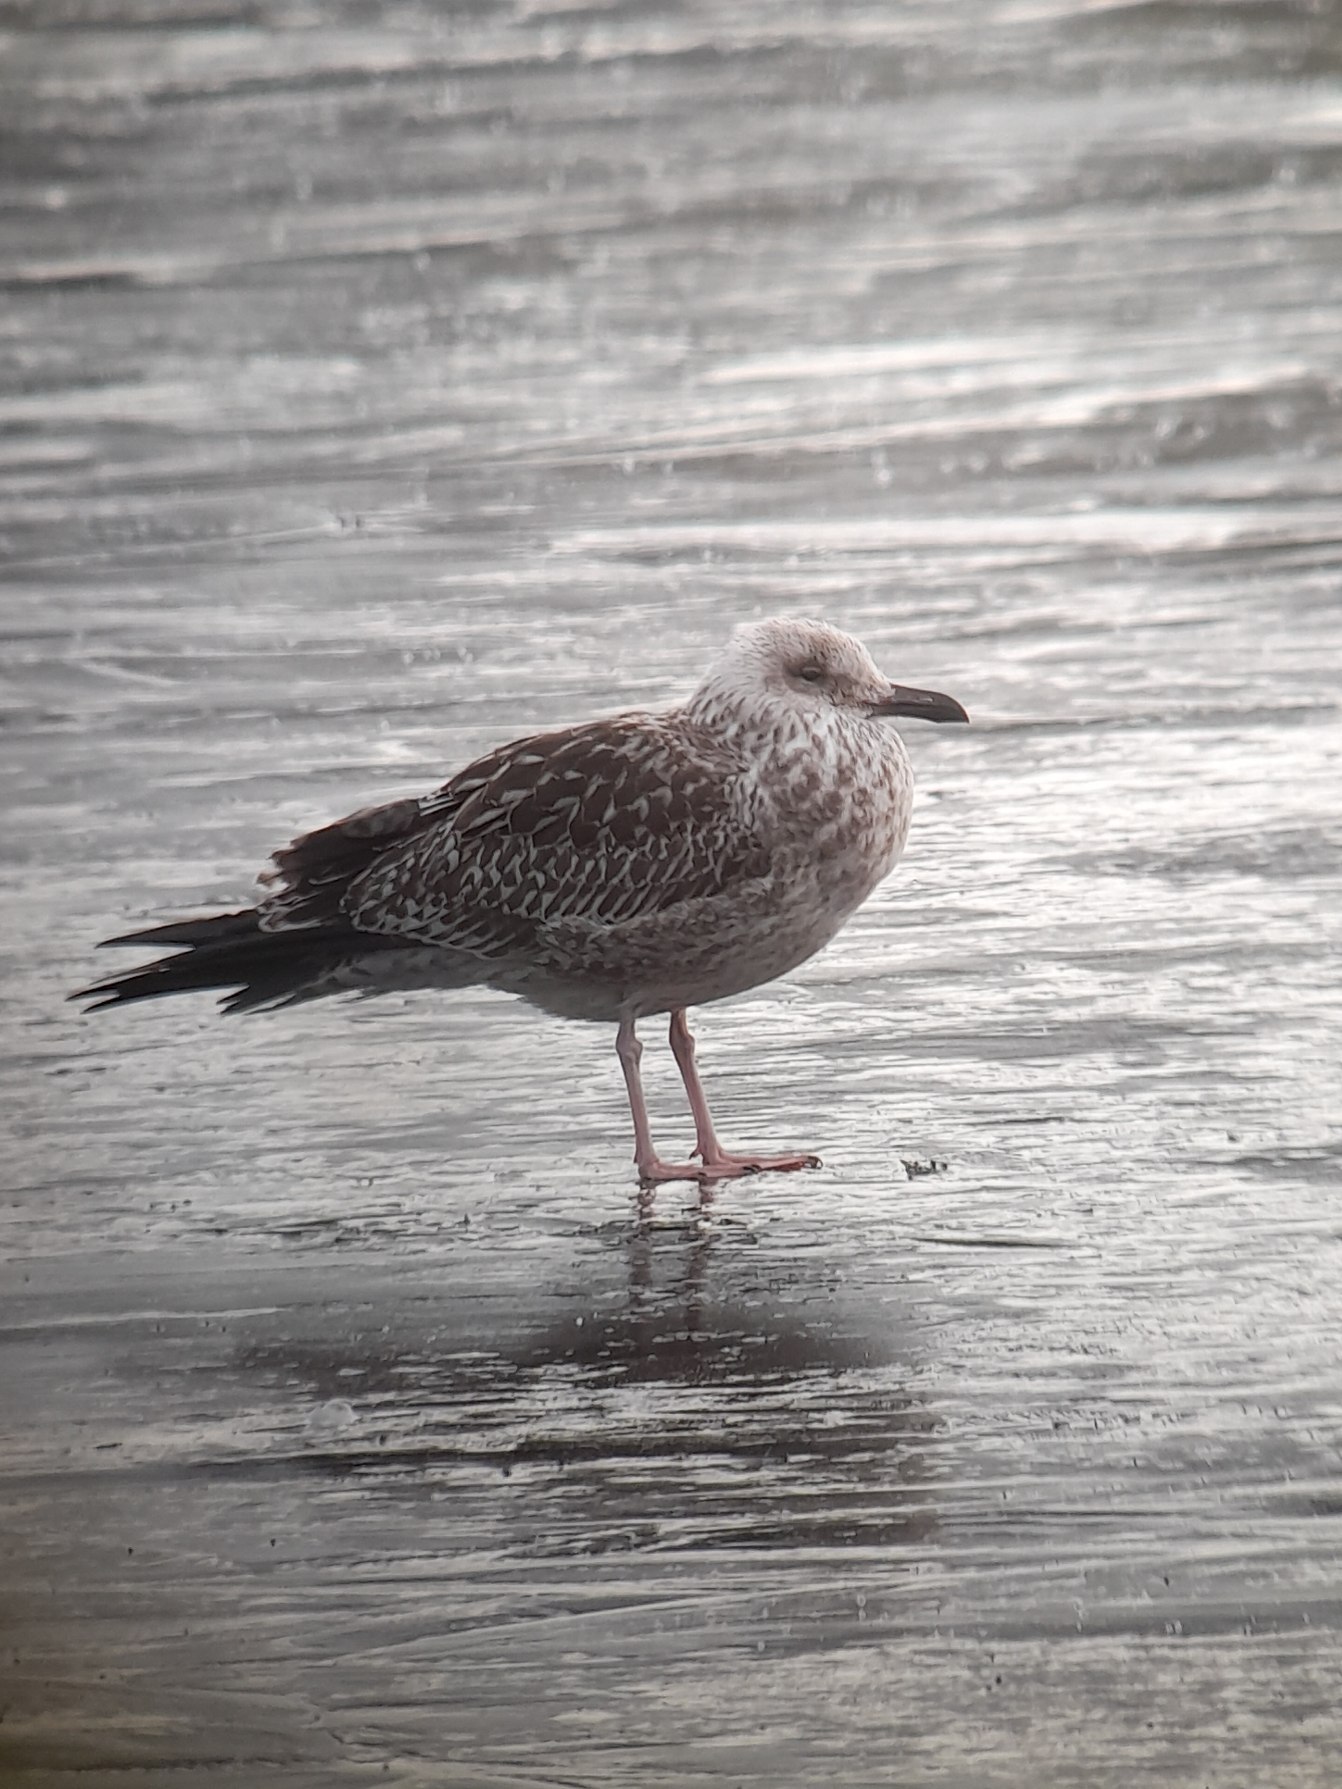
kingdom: Animalia
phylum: Chordata
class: Aves
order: Charadriiformes
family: Laridae
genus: Larus
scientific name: Larus fuscus
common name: Sildemåge
